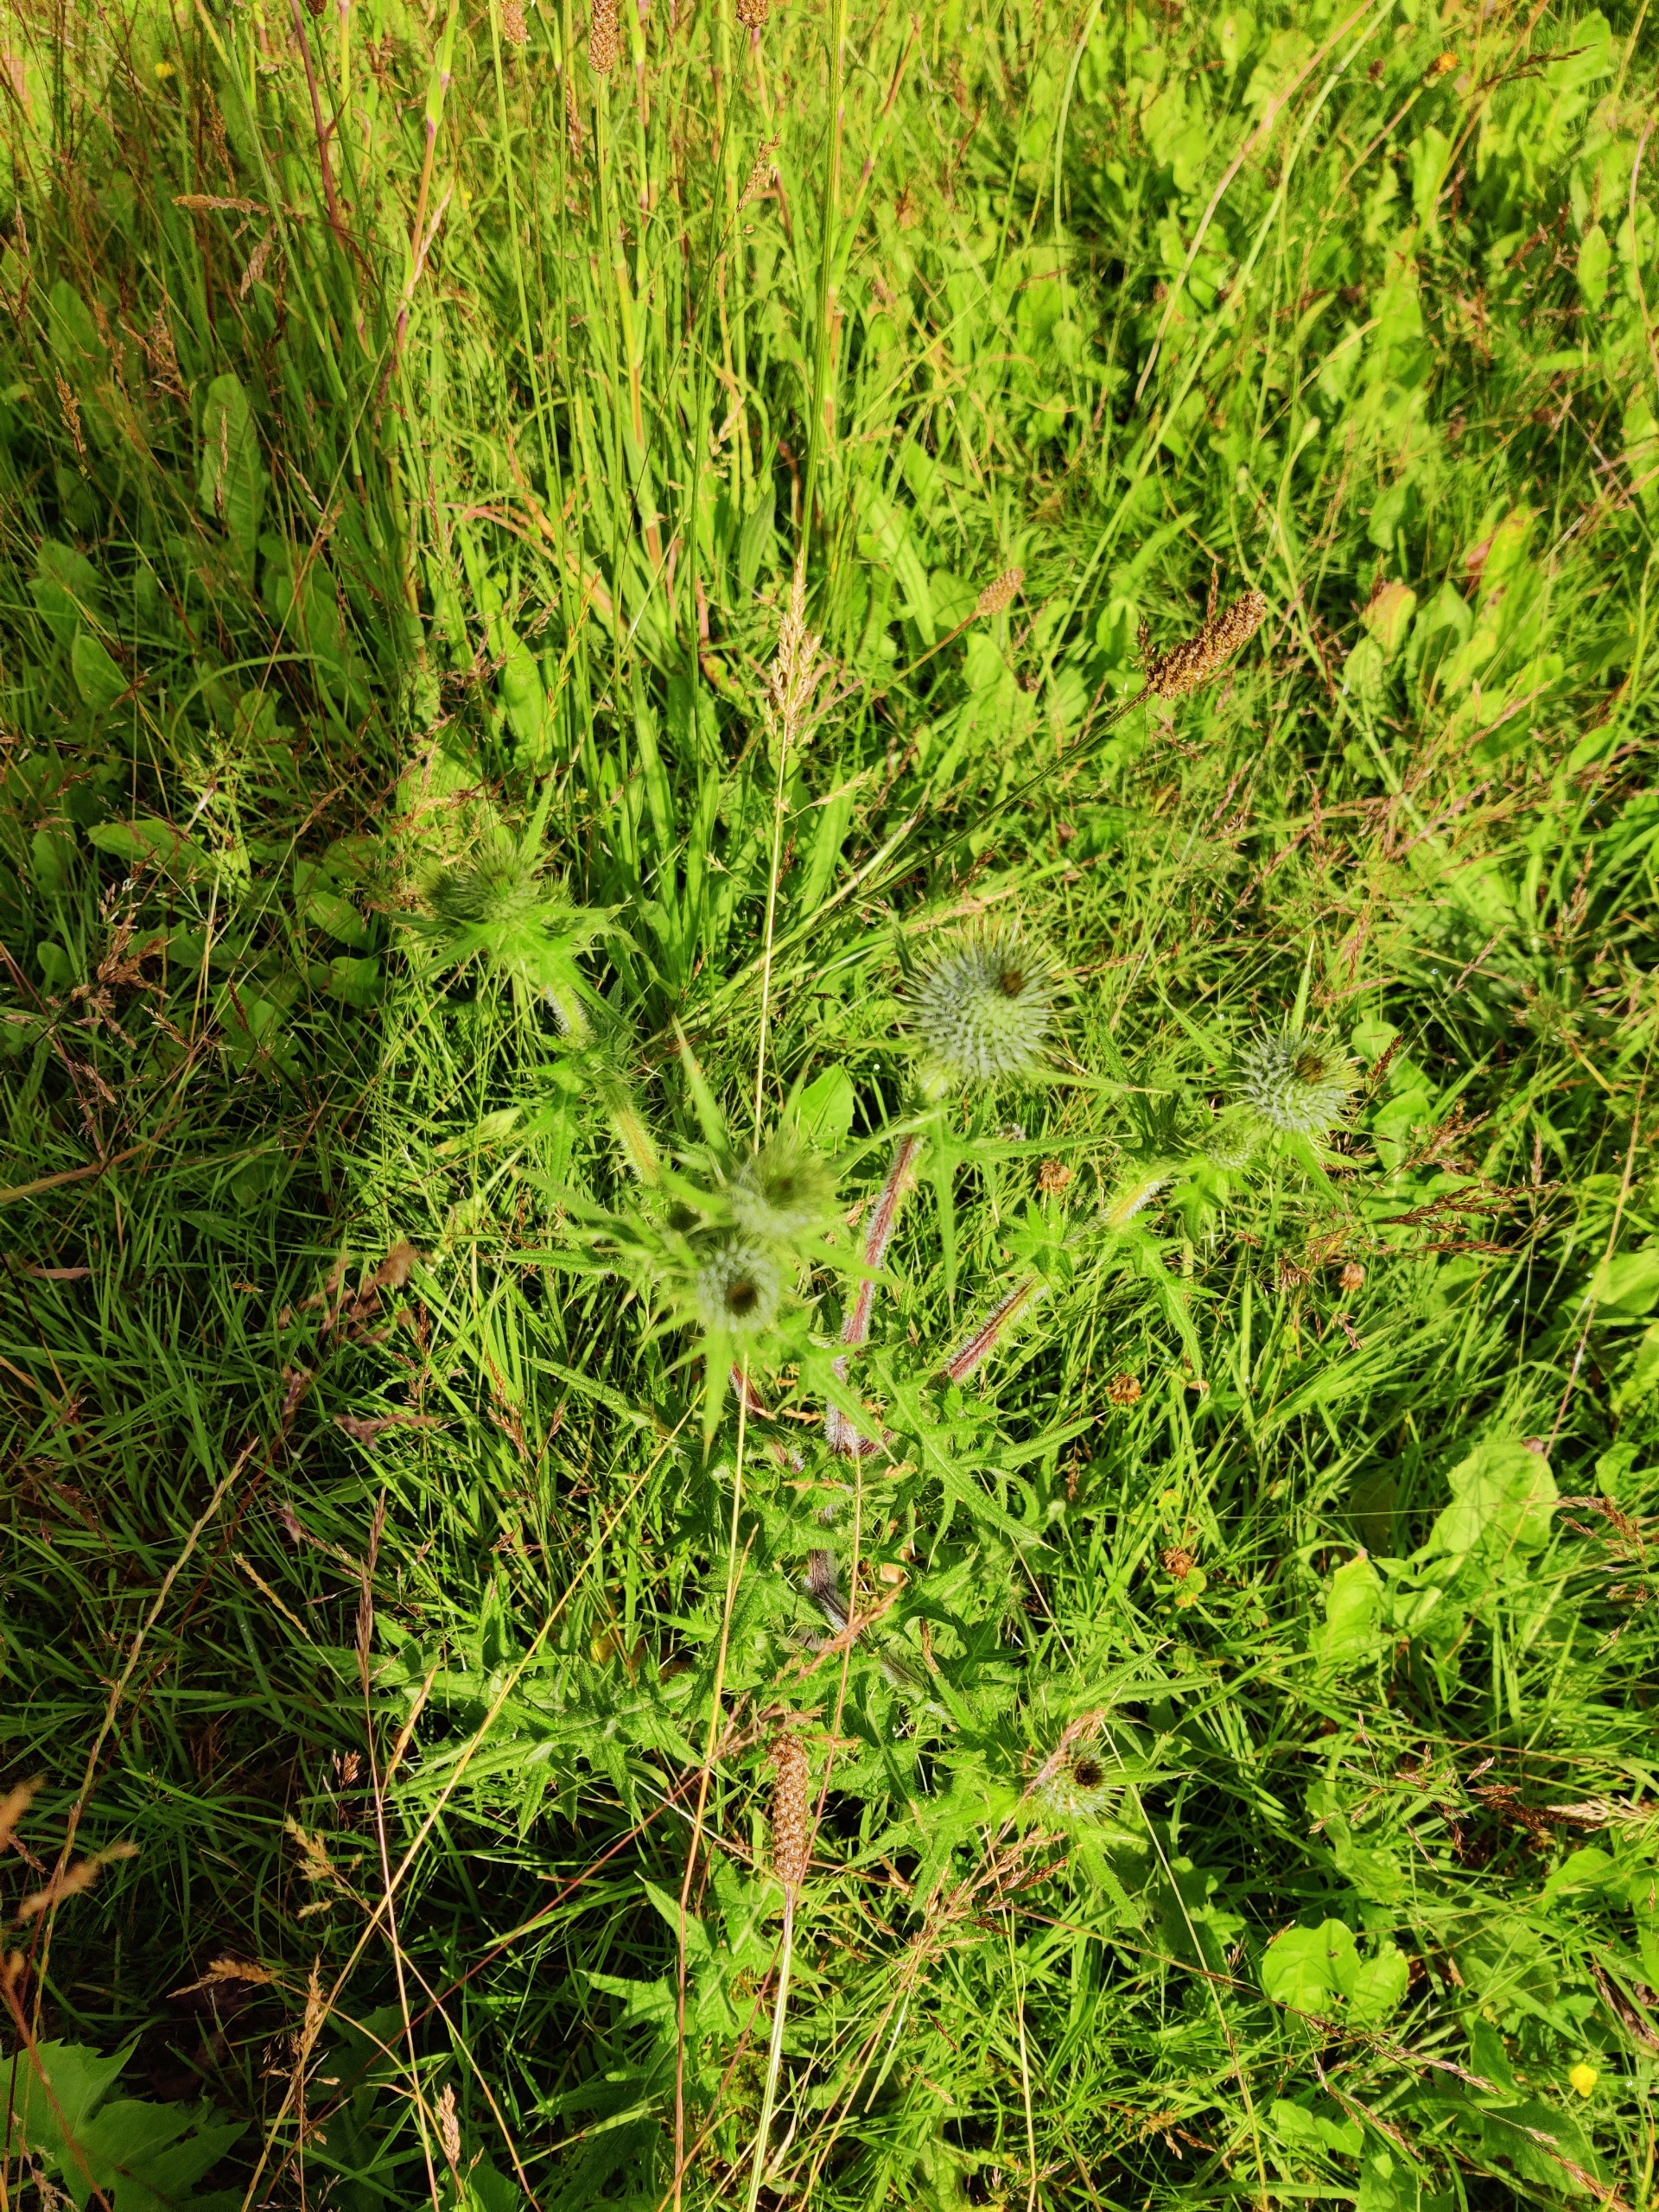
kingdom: Plantae
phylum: Tracheophyta
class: Magnoliopsida
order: Asterales
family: Asteraceae
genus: Cirsium
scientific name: Cirsium vulgare
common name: Horse-tidsel
